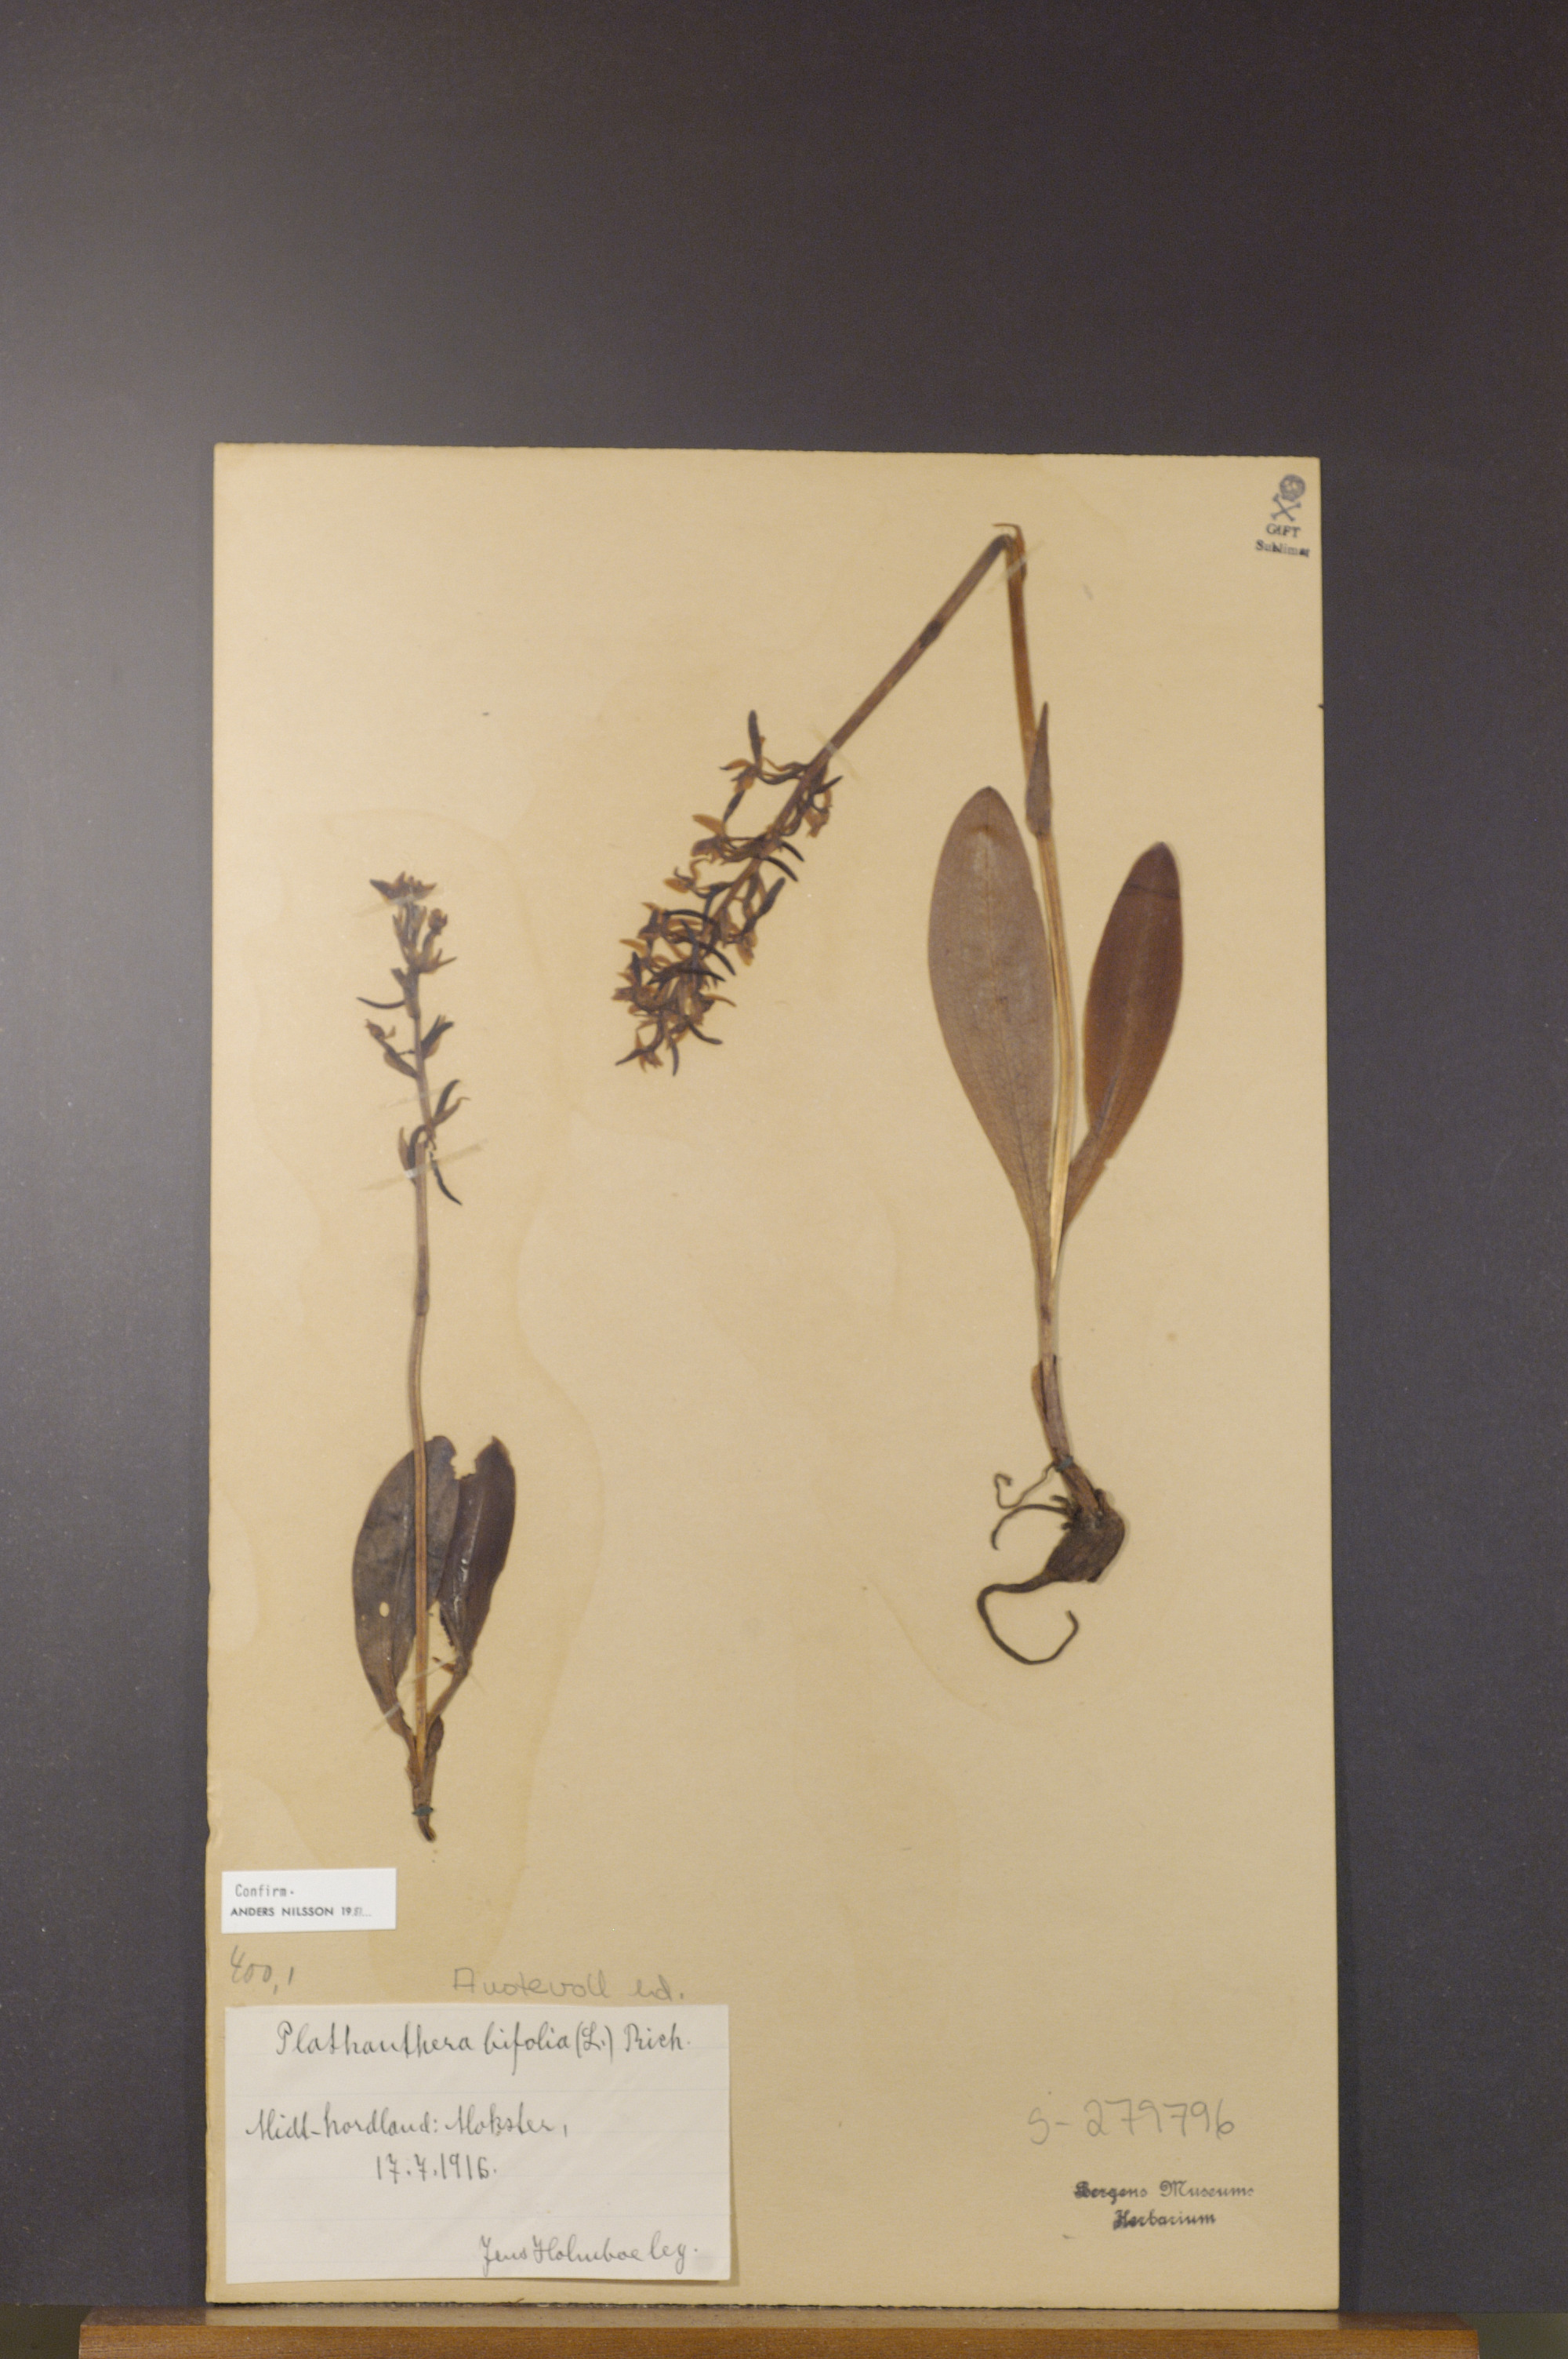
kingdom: Plantae
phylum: Tracheophyta
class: Liliopsida
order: Asparagales
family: Orchidaceae
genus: Platanthera
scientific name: Platanthera bifolia
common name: Lesser butterfly-orchid
